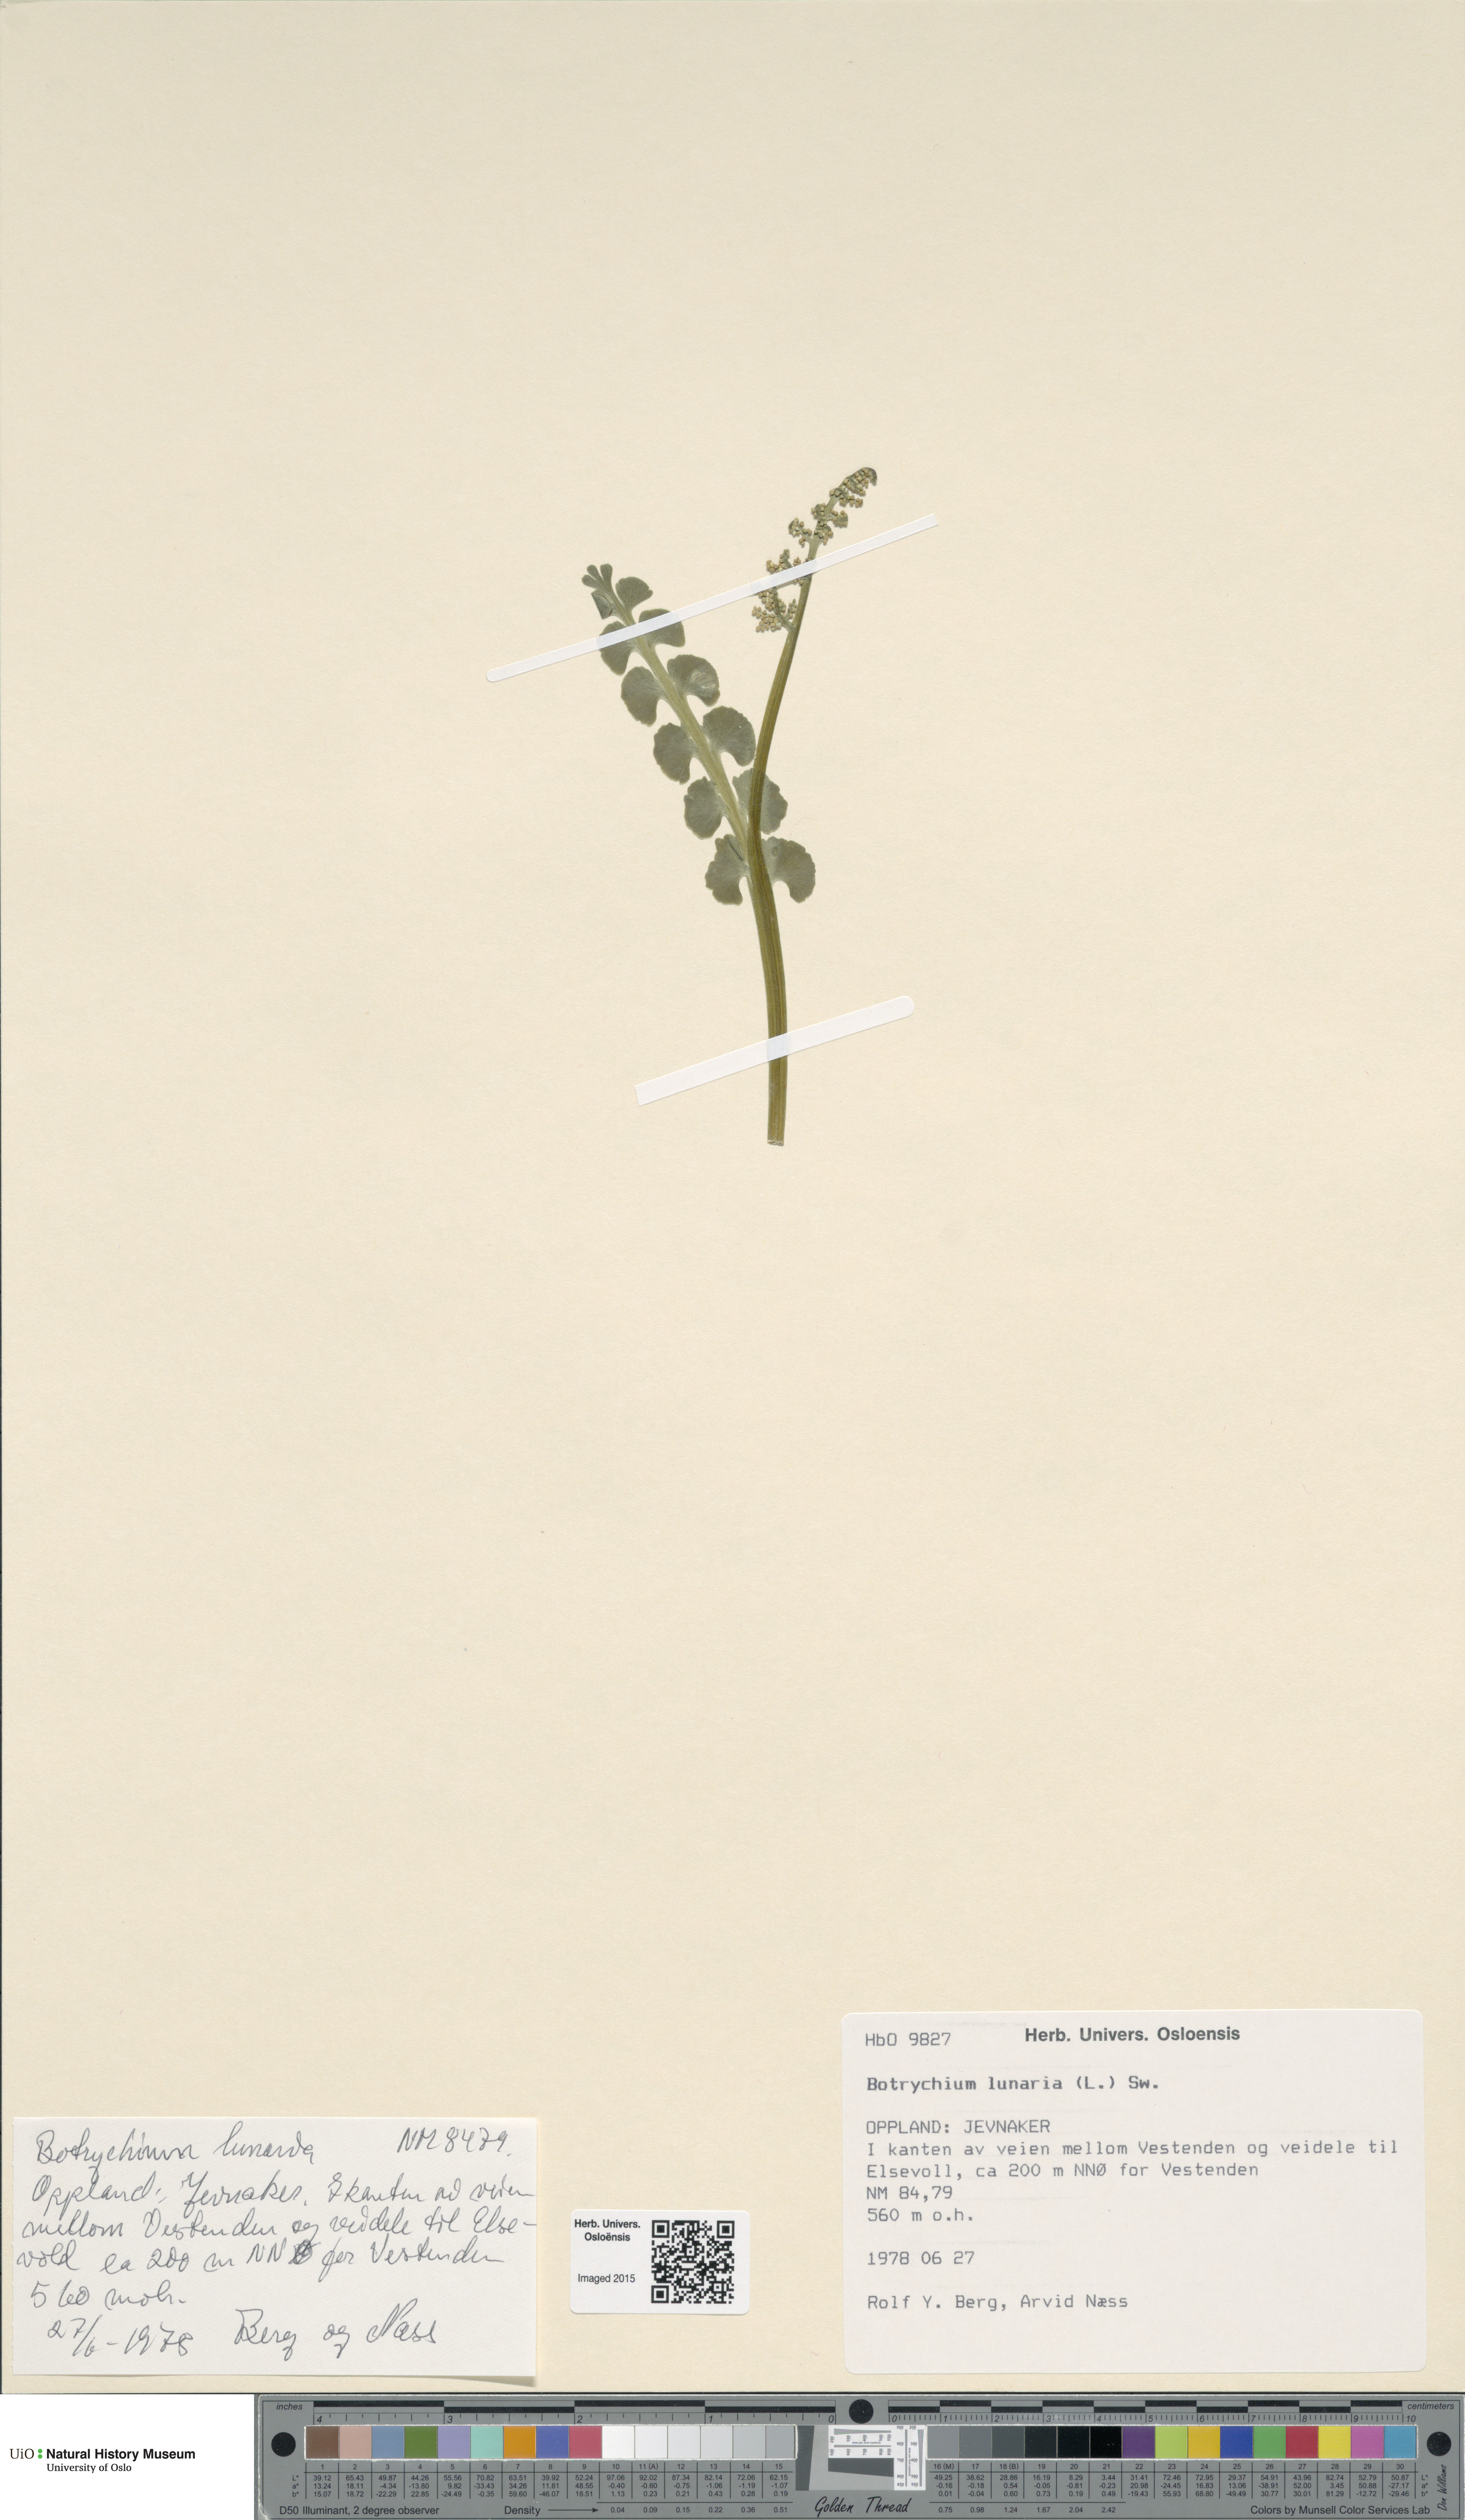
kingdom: Plantae
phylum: Tracheophyta
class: Polypodiopsida
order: Ophioglossales
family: Ophioglossaceae
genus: Botrychium
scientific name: Botrychium lunaria
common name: Moonwort
